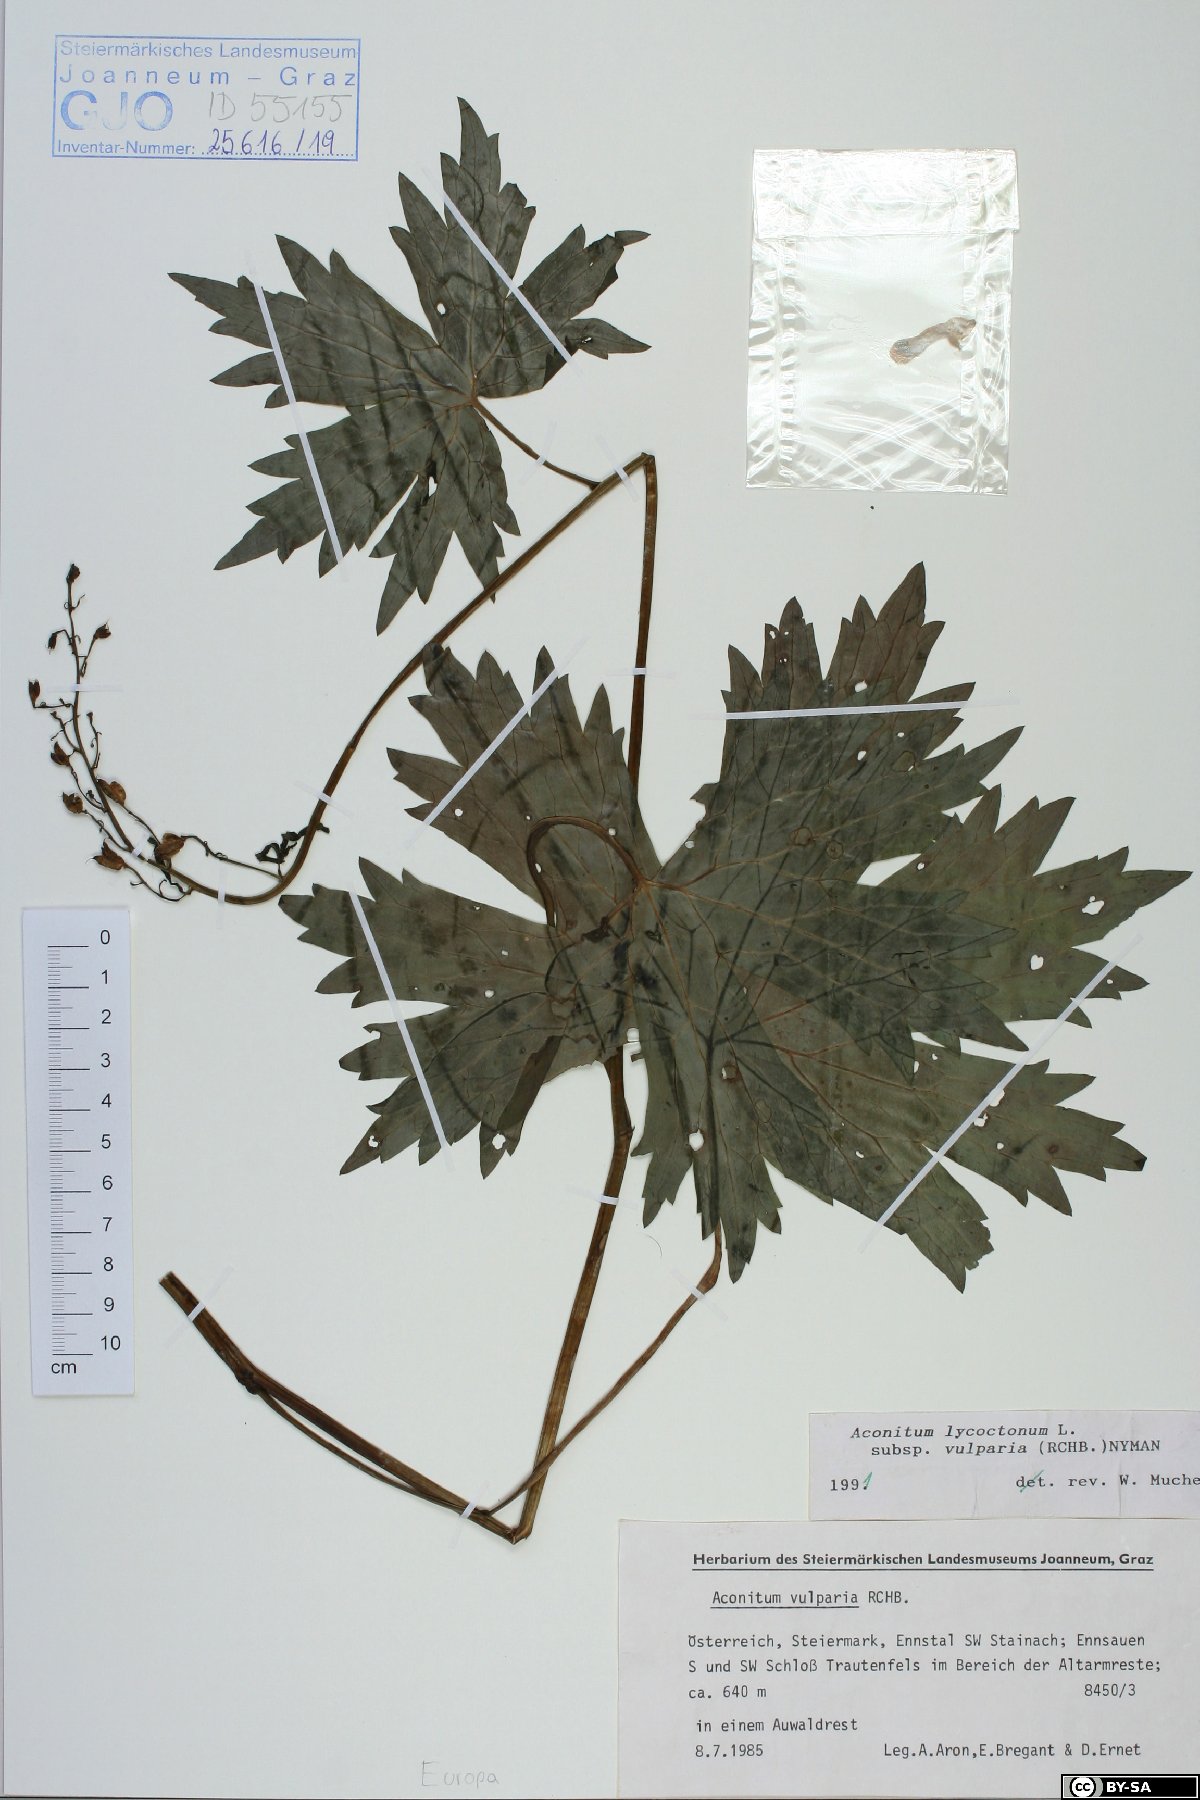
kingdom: Plantae
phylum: Tracheophyta
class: Magnoliopsida
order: Ranunculales
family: Ranunculaceae
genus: Aconitum
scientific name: Aconitum lycoctonum
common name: Wolf's-bane
